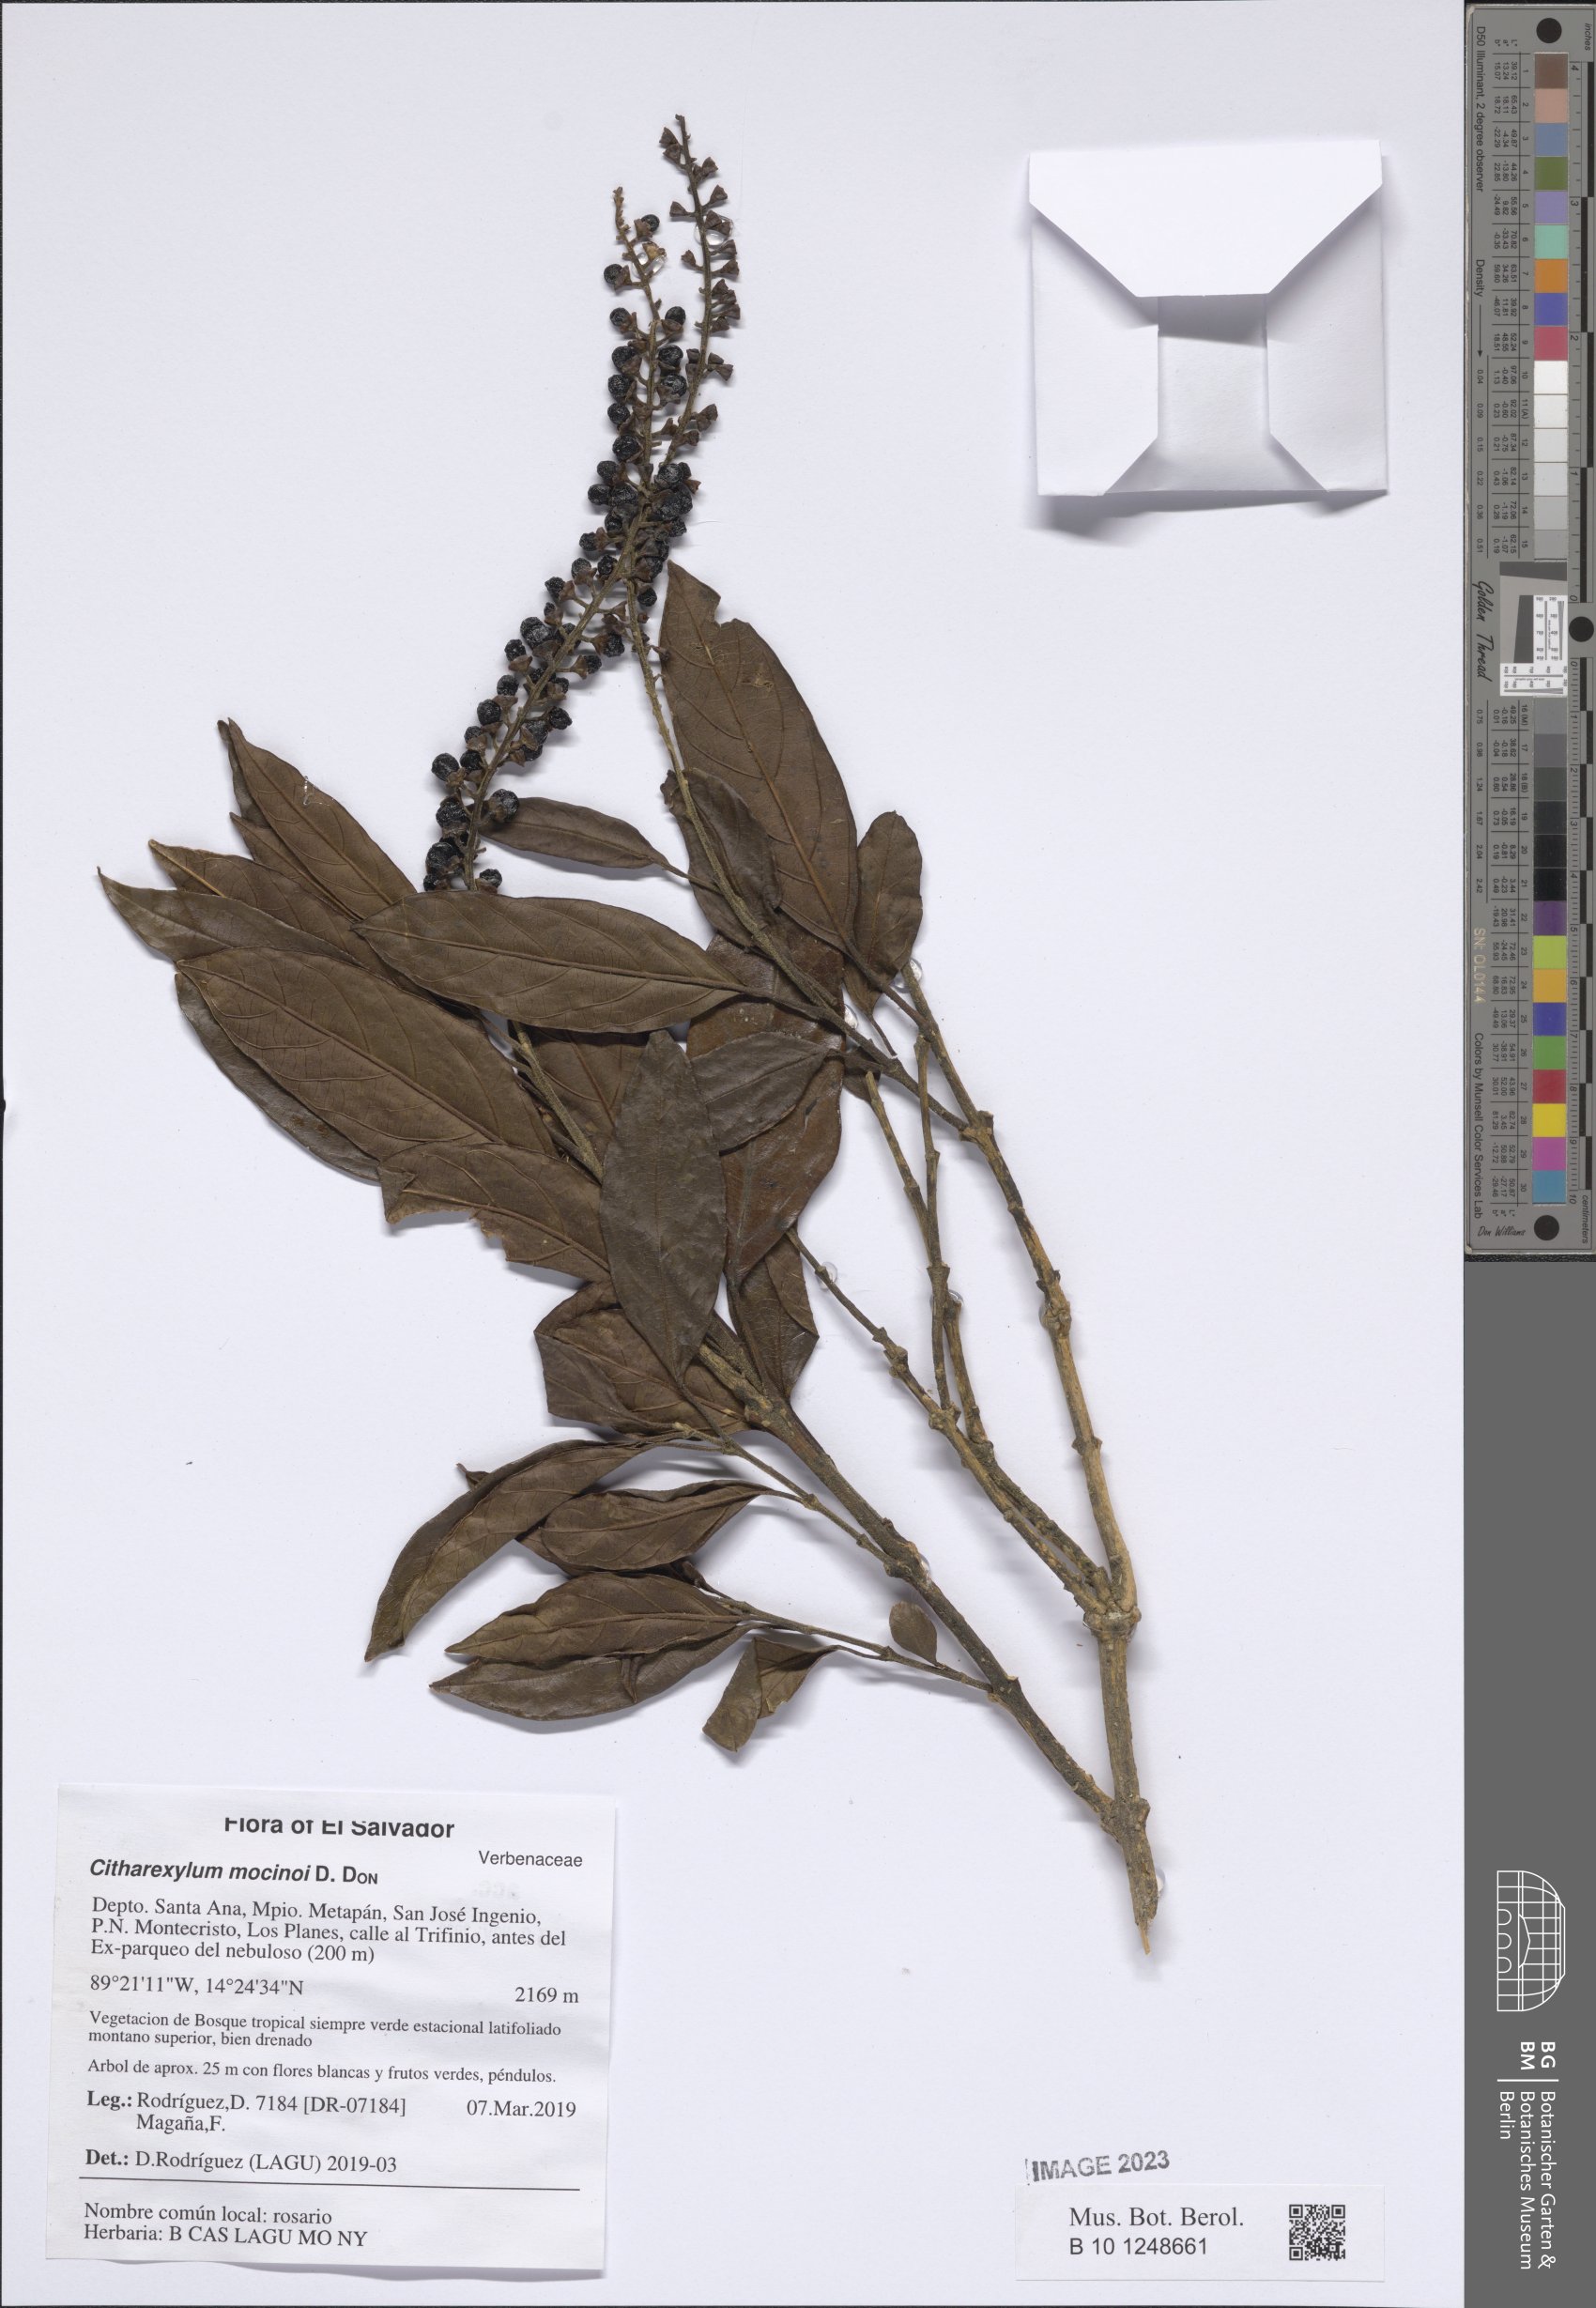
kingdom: Plantae
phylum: Tracheophyta
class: Magnoliopsida
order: Lamiales
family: Verbenaceae
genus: Citharexylum
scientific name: Citharexylum mocinoi
